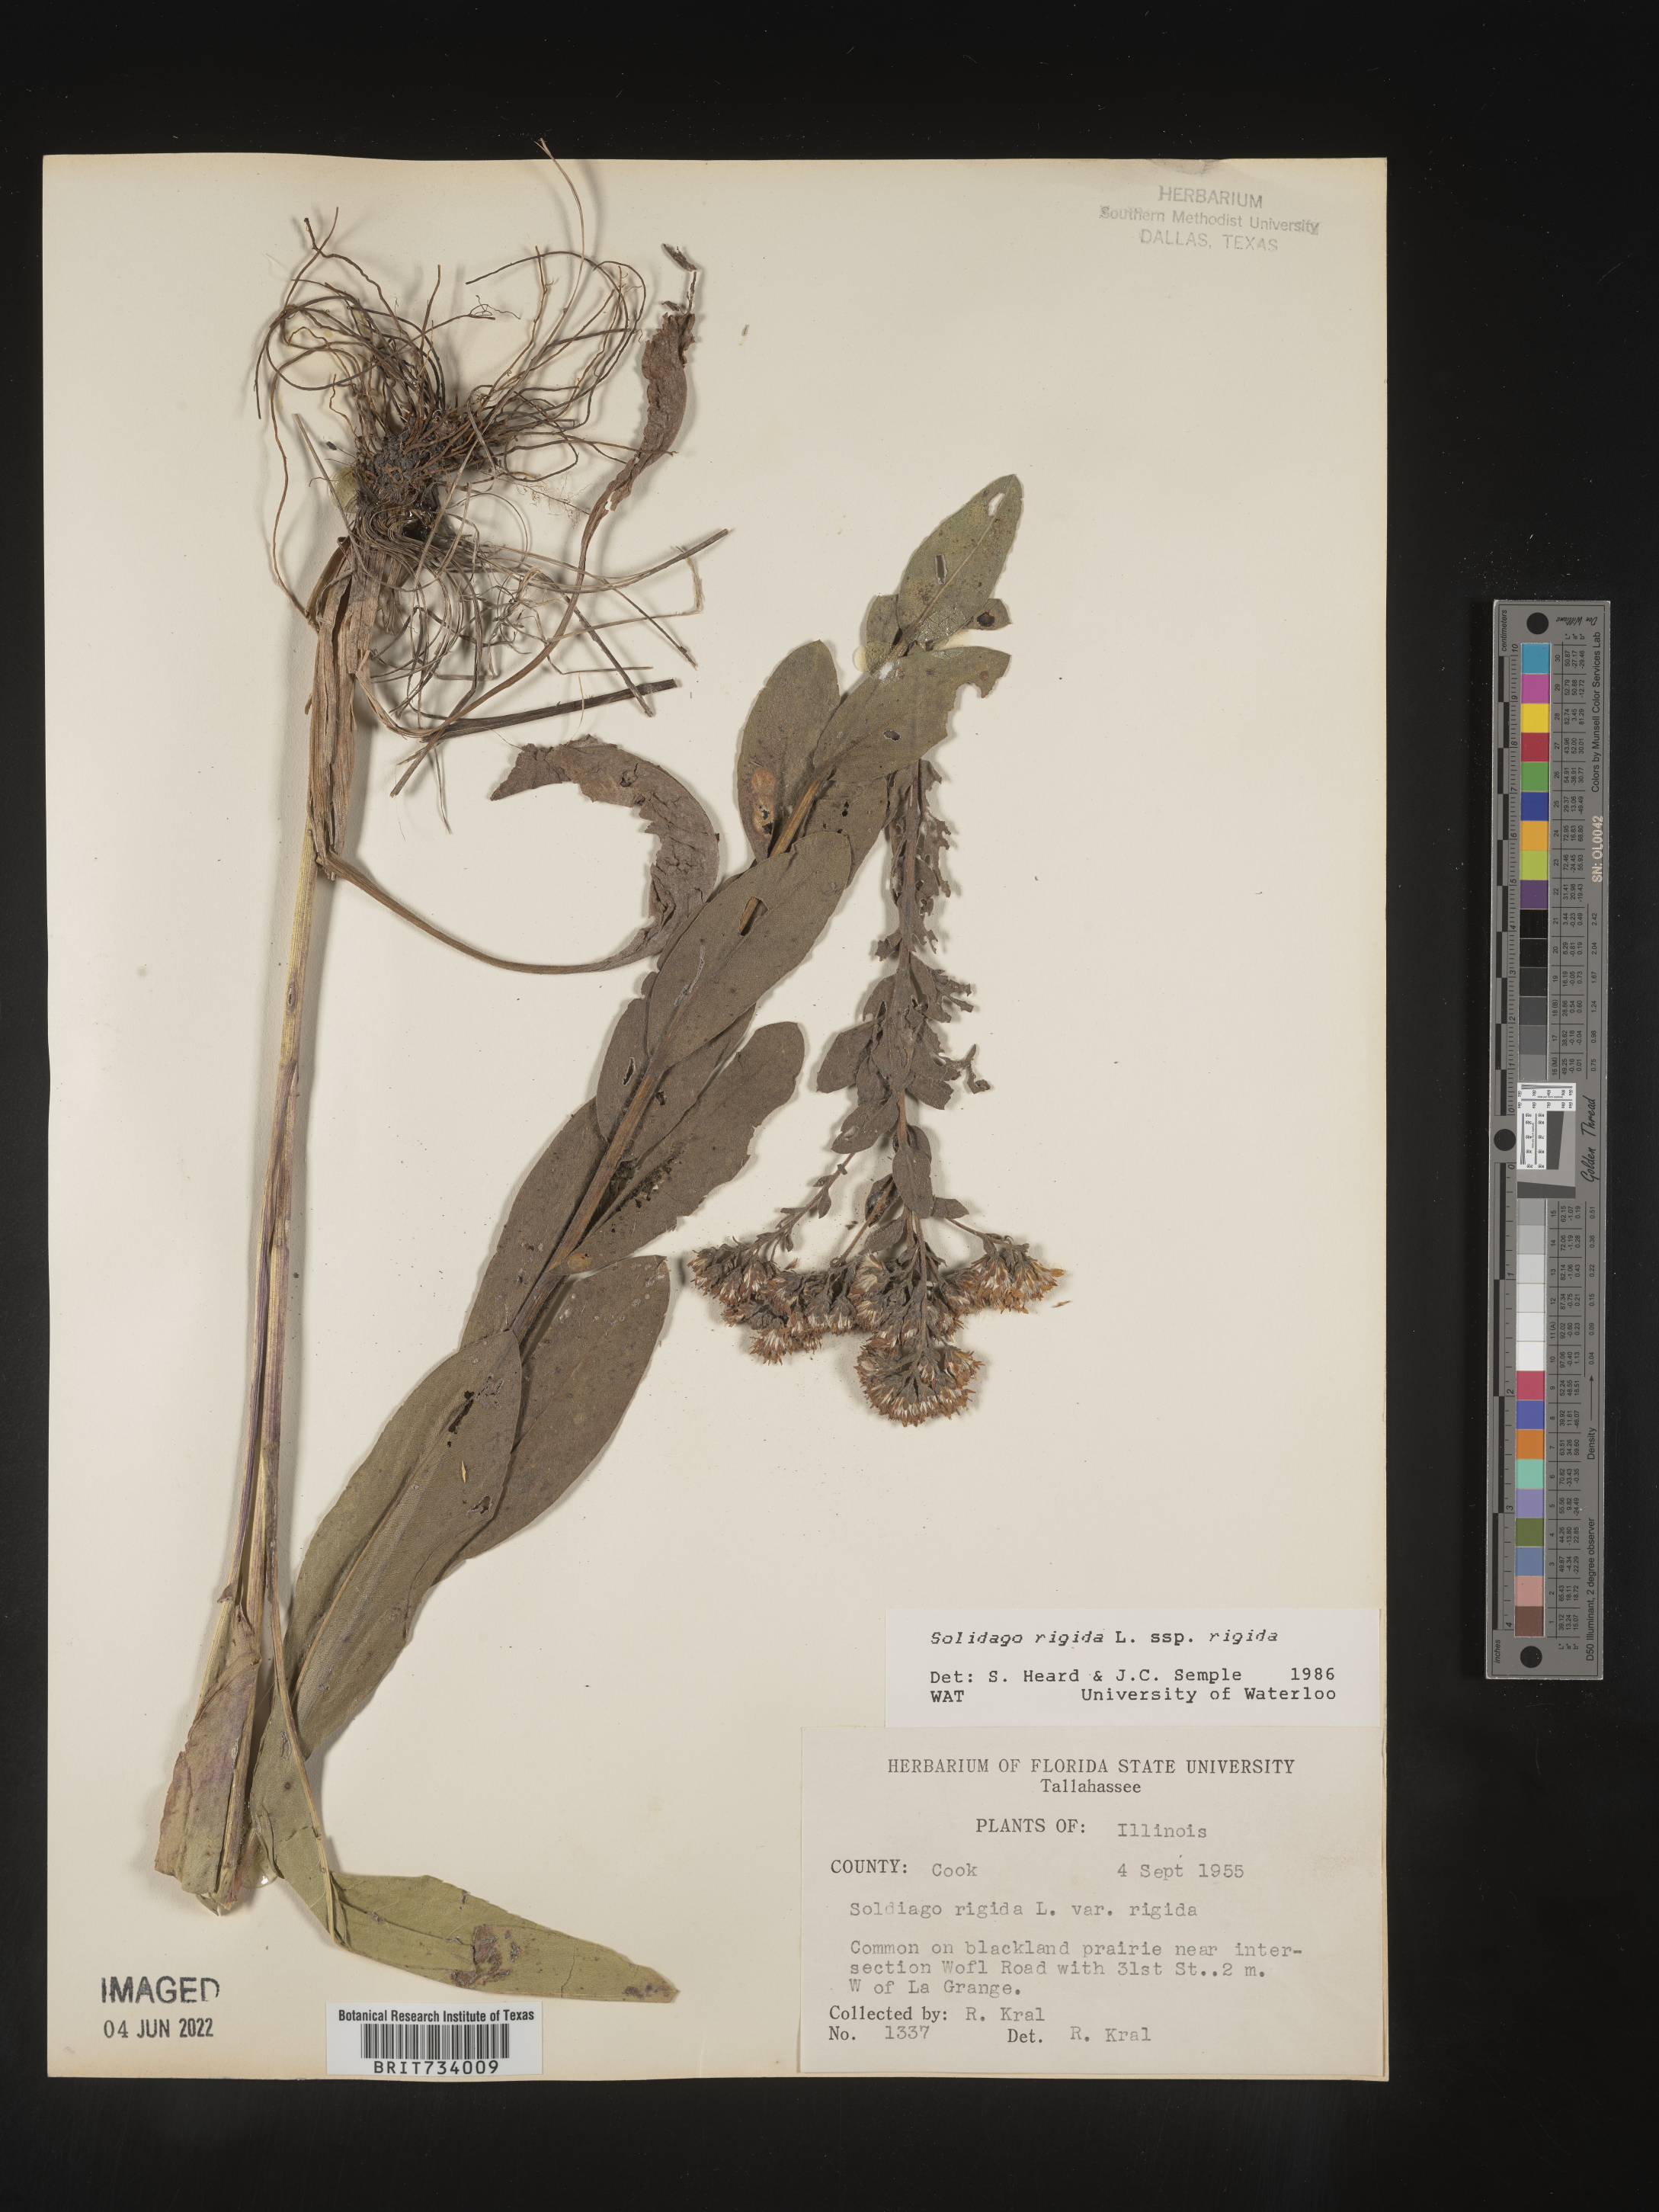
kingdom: Plantae
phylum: Tracheophyta
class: Magnoliopsida
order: Asterales
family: Asteraceae
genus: Solidago
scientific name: Solidago rigida
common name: Rigid goldenrod
